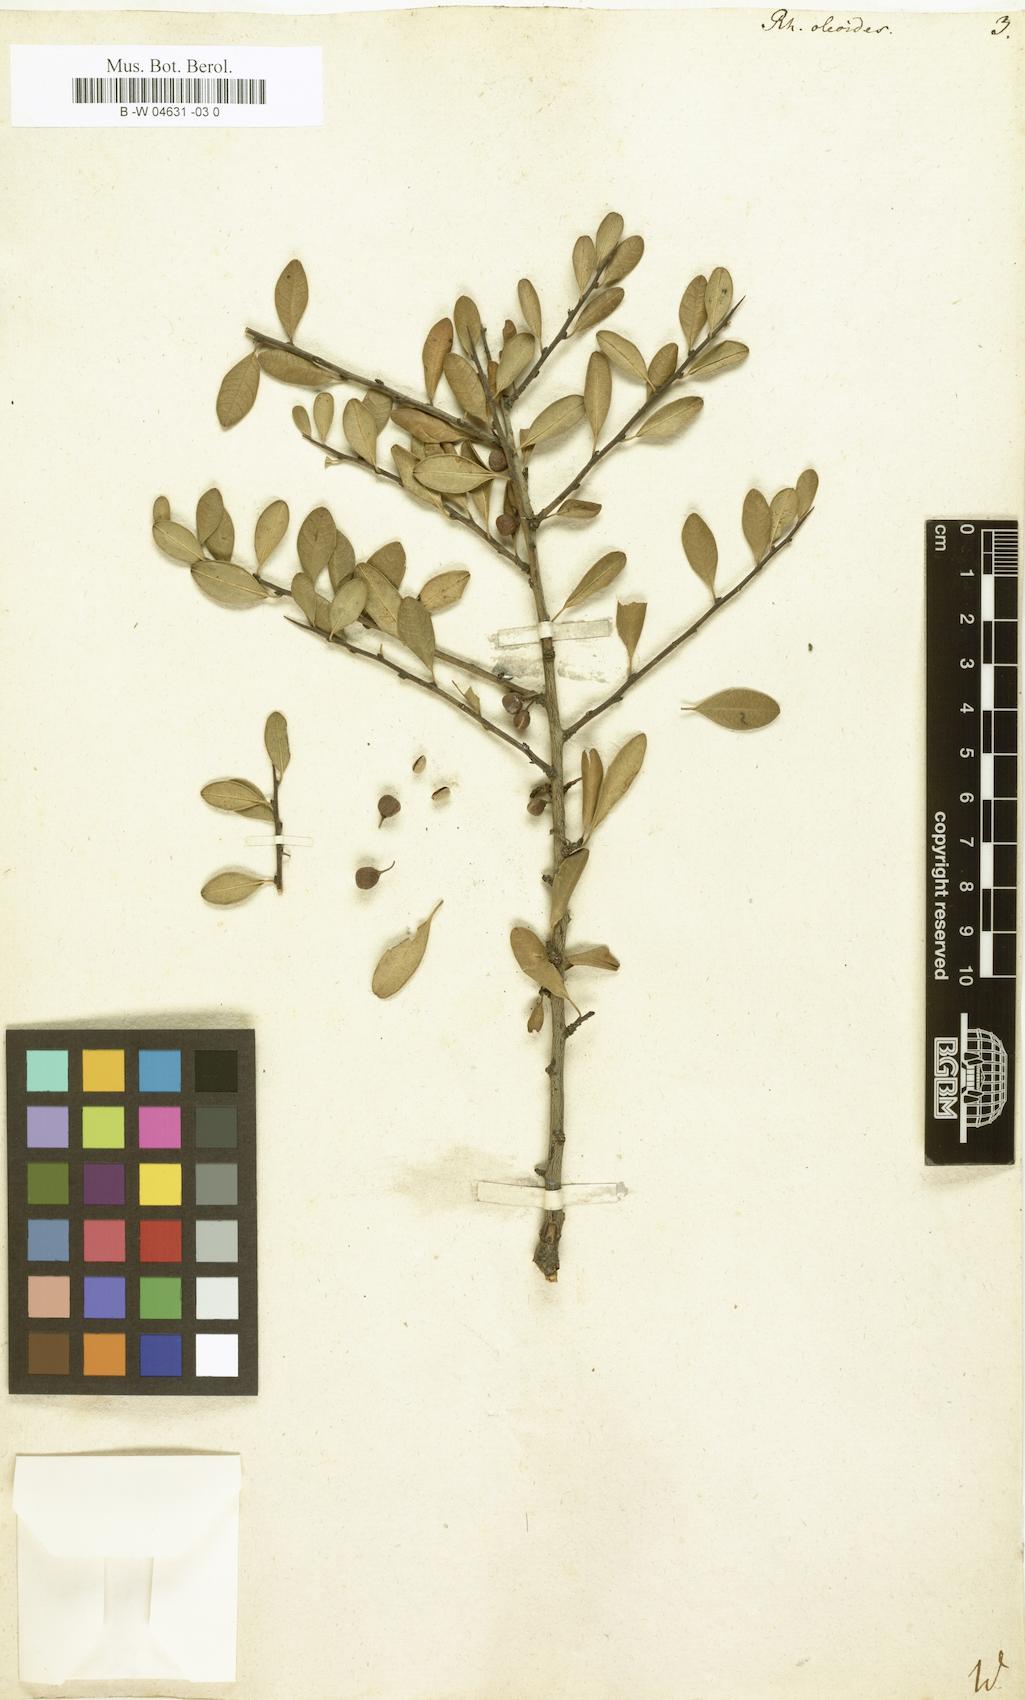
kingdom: Plantae
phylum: Tracheophyta
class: Magnoliopsida
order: Rosales
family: Rhamnaceae
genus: Rhamnus
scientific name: Rhamnus oleoides
